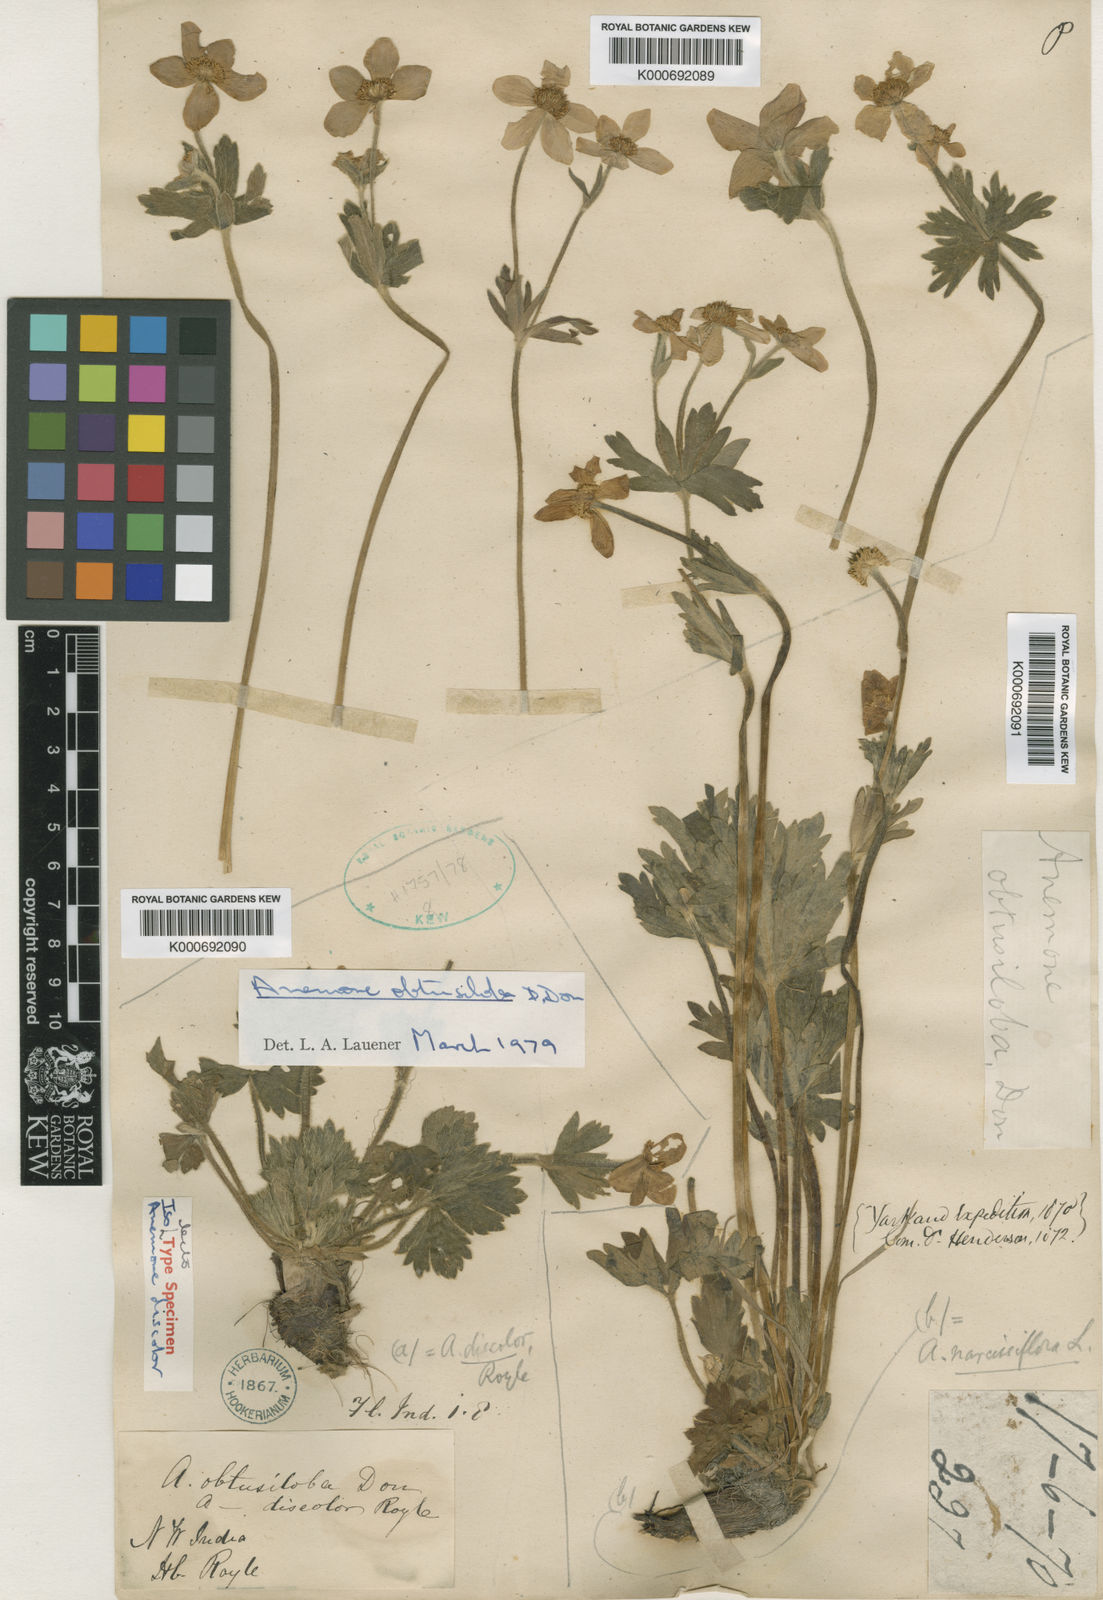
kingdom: Plantae
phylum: Tracheophyta
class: Magnoliopsida
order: Ranunculales
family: Ranunculaceae
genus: Anemonastrum
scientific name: Anemonastrum obtusilobum
